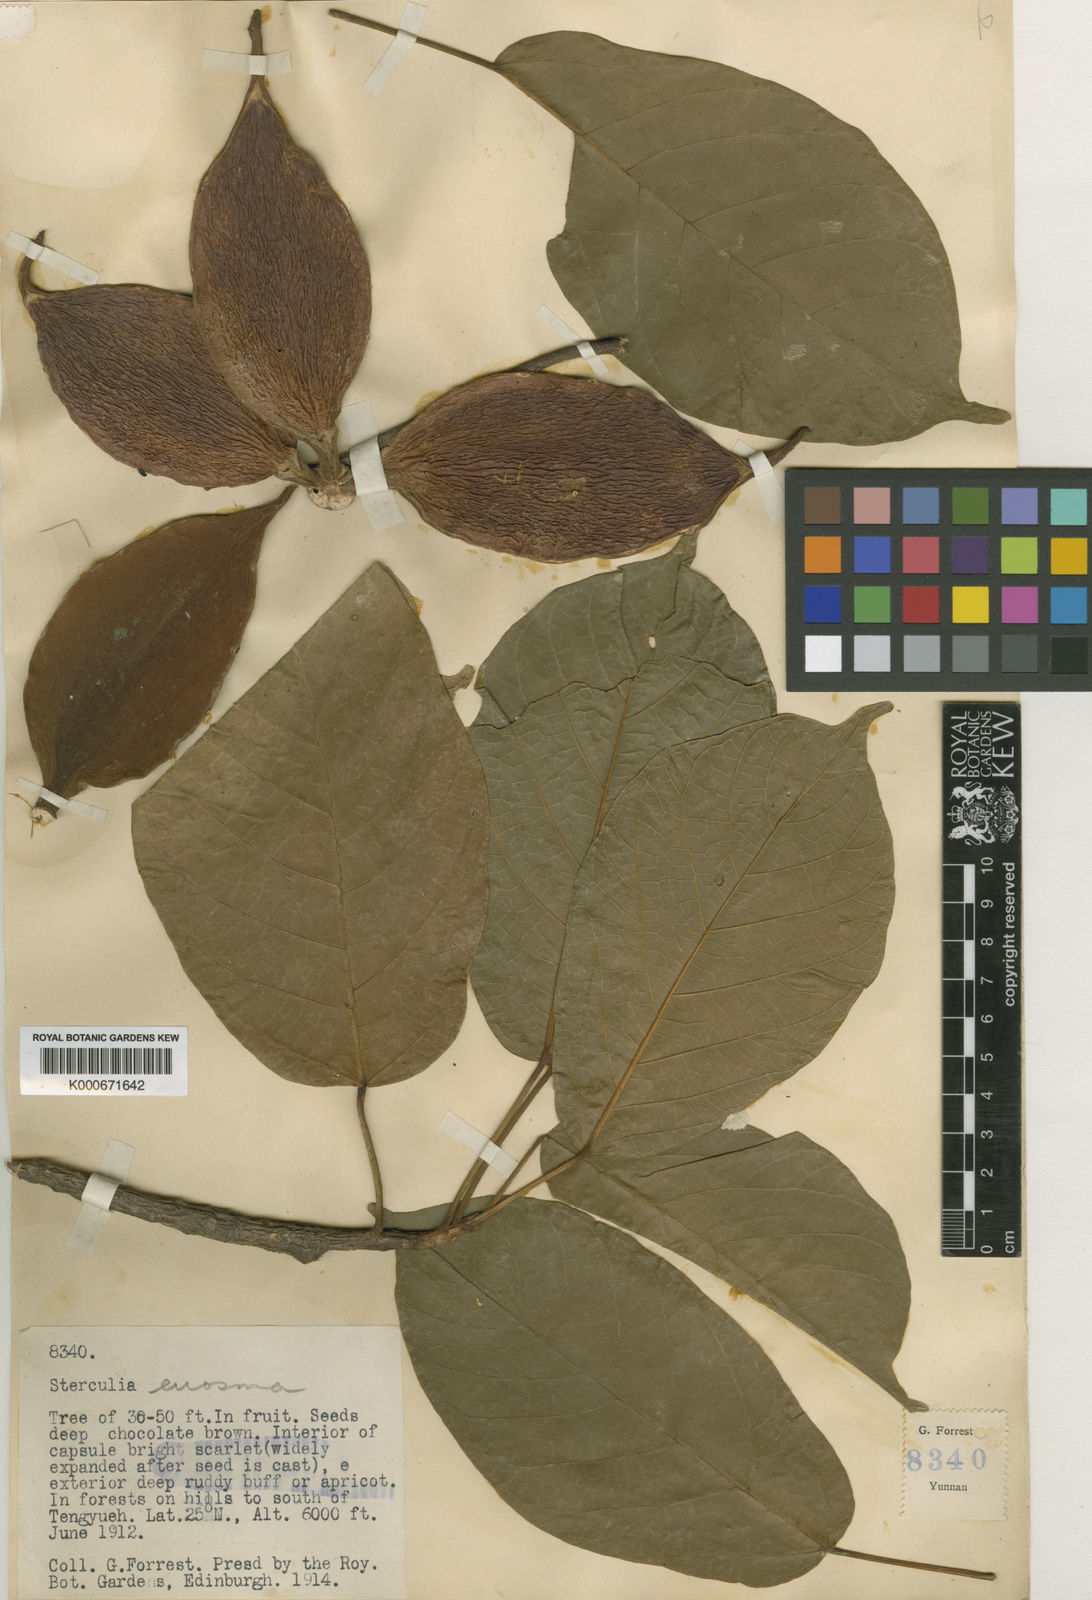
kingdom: Plantae
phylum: Tracheophyta
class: Magnoliopsida
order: Malvales
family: Malvaceae
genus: Sterculia
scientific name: Sterculia euosma
